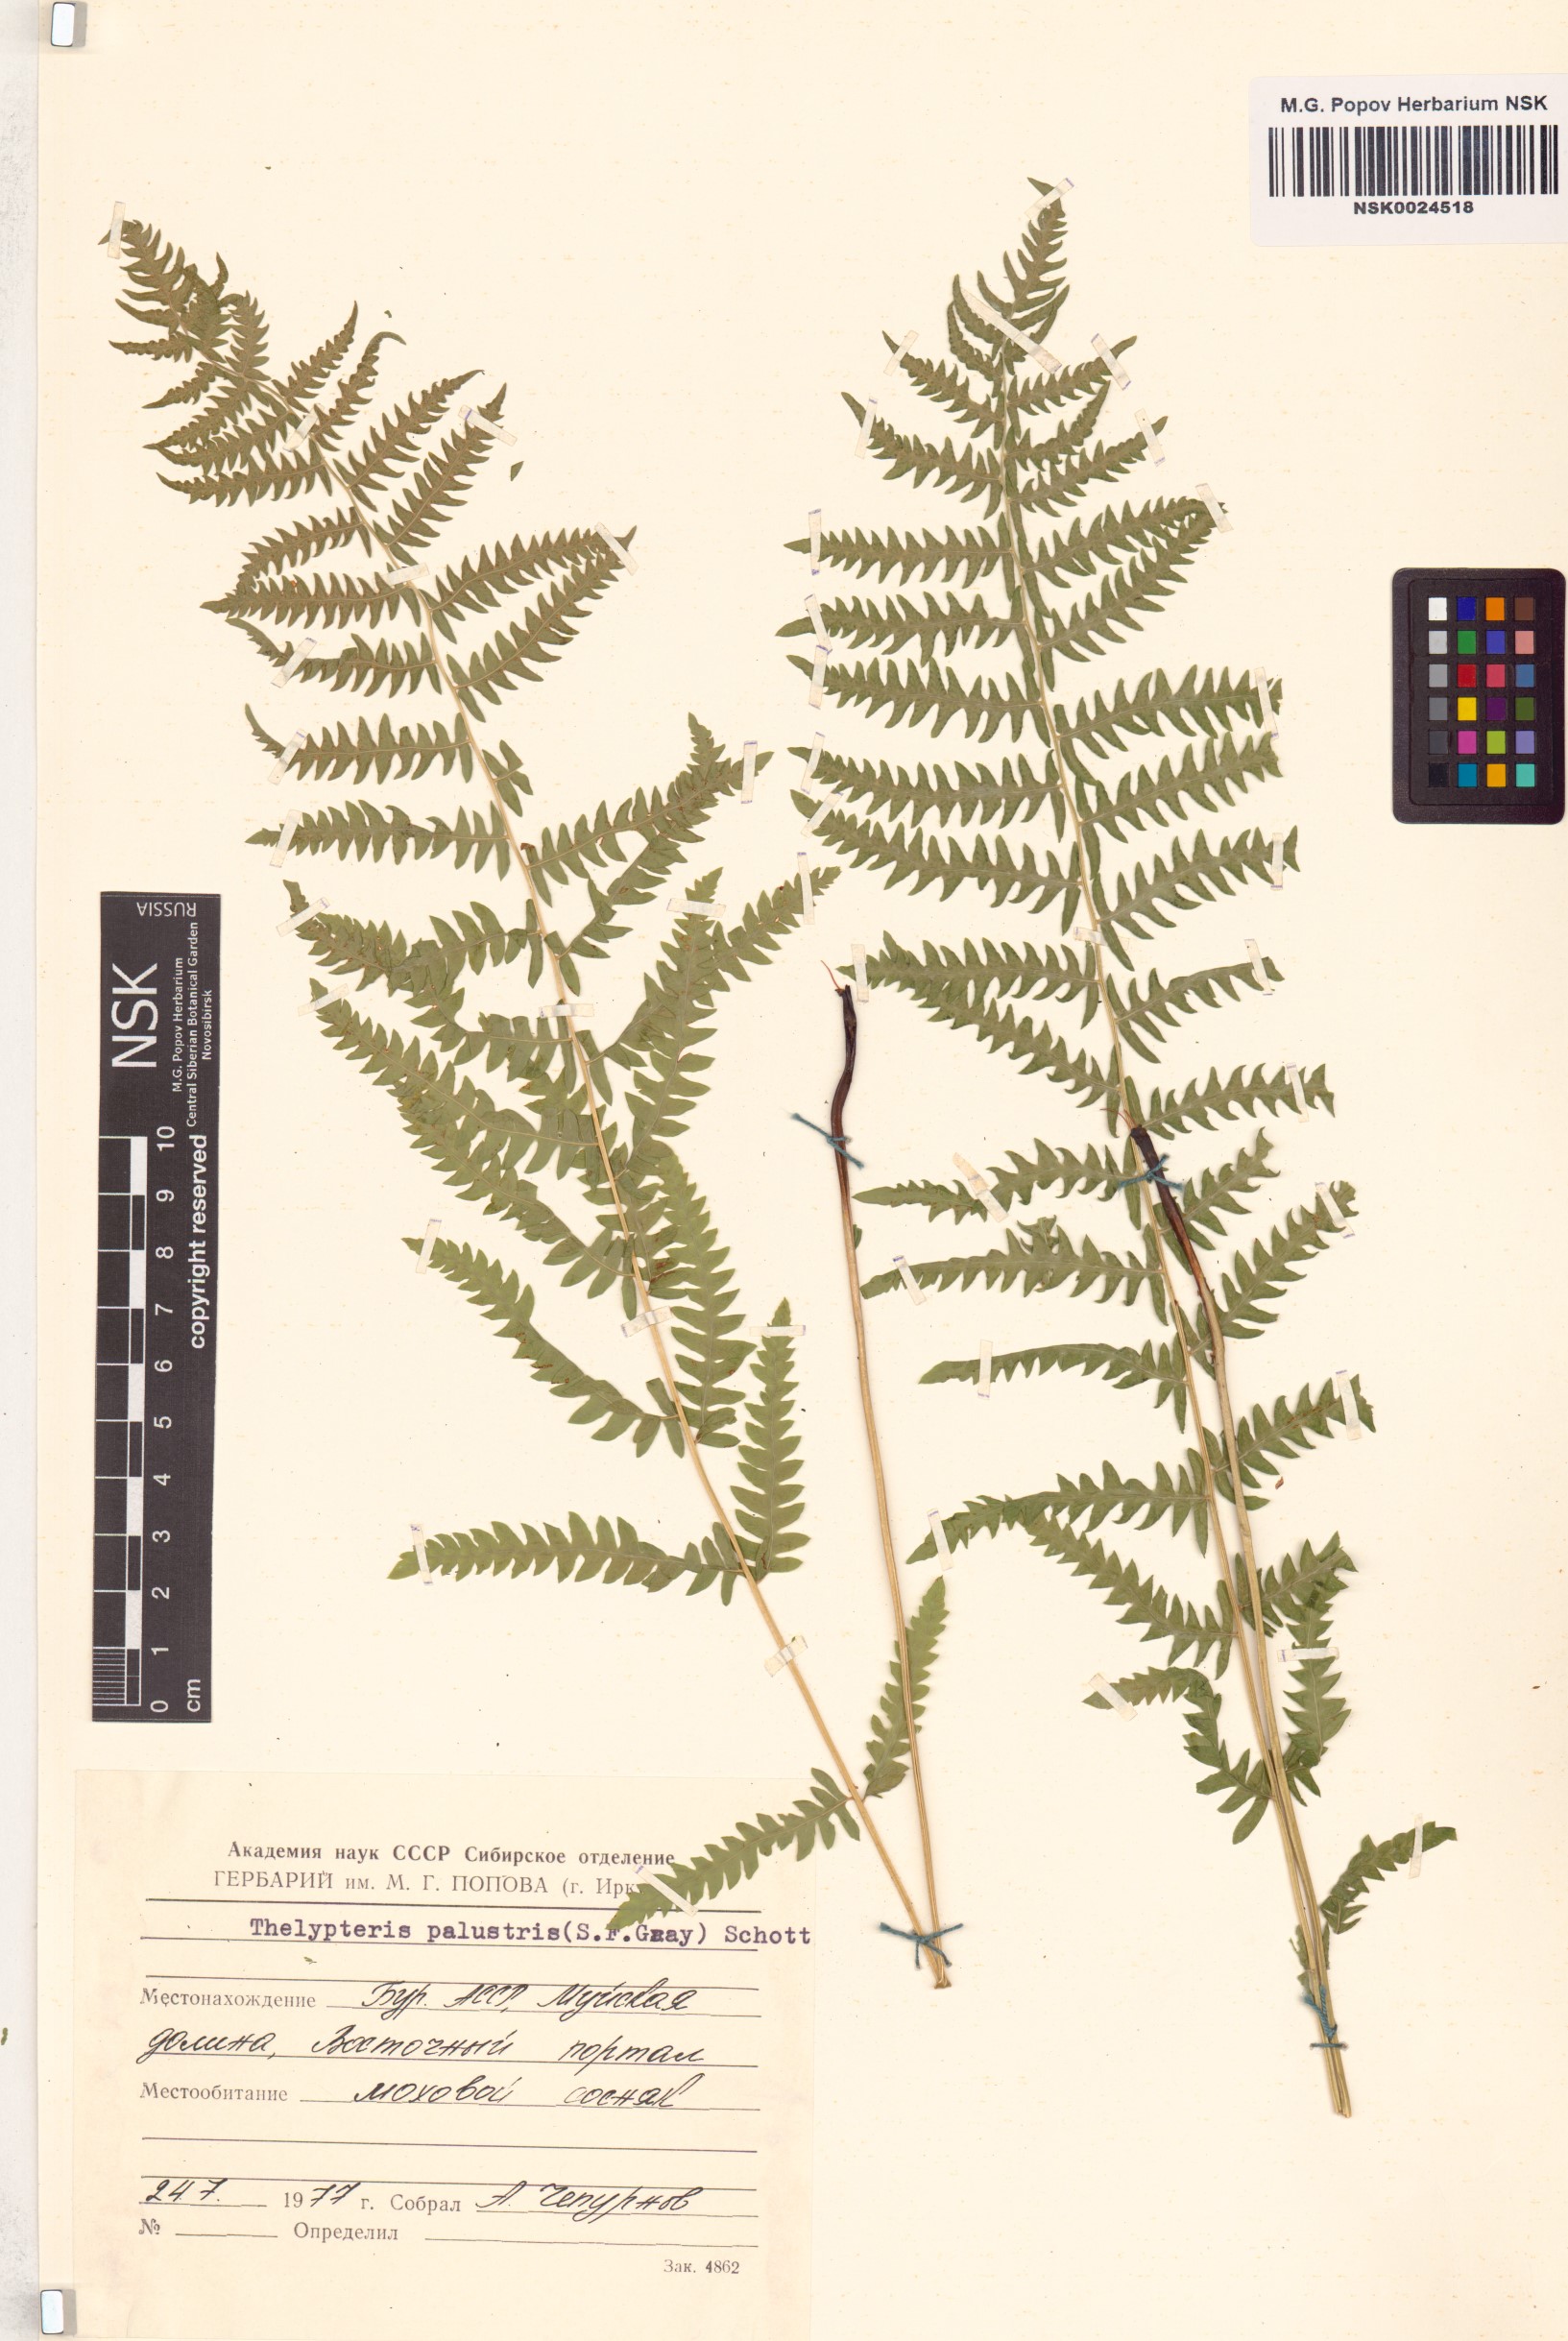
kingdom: Plantae
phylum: Tracheophyta
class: Polypodiopsida
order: Polypodiales
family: Thelypteridaceae
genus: Thelypteris
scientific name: Thelypteris palustris
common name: Marsh fern
